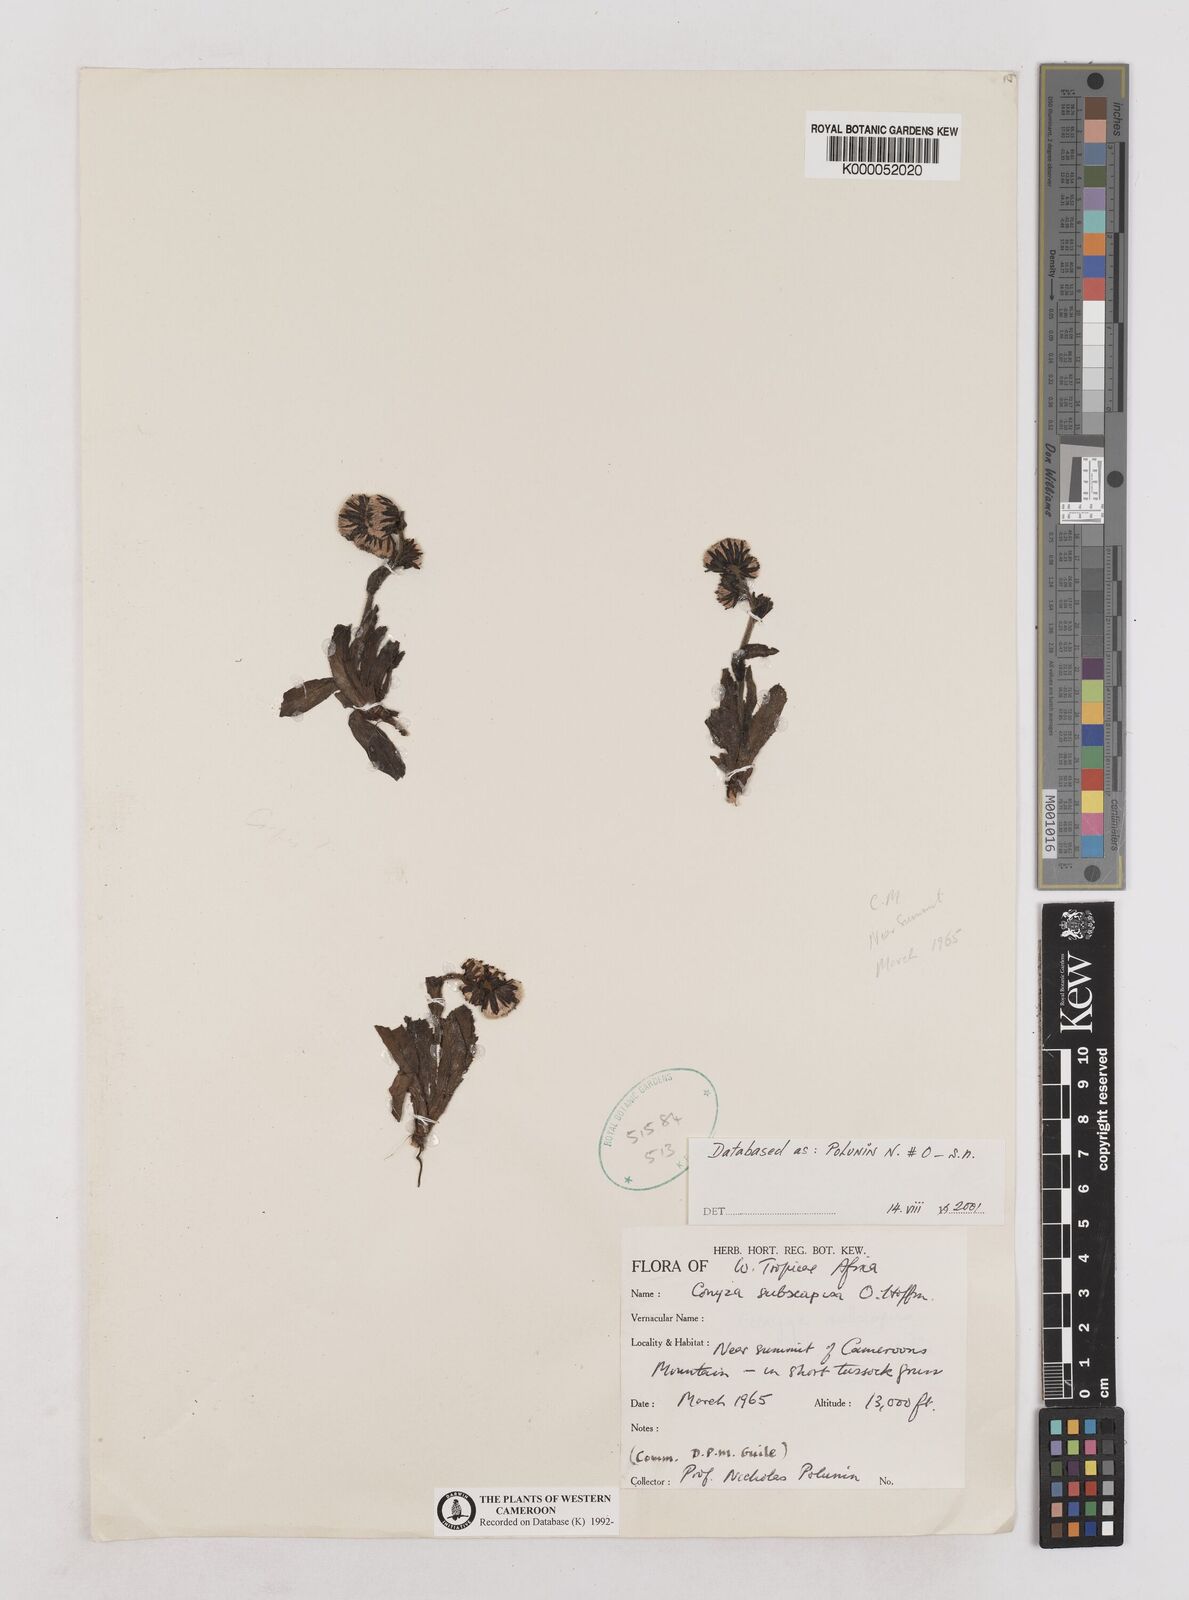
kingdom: Plantae
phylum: Tracheophyta
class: Magnoliopsida
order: Asterales
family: Asteraceae
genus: Eschenbachia
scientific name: Eschenbachia subscaposa
